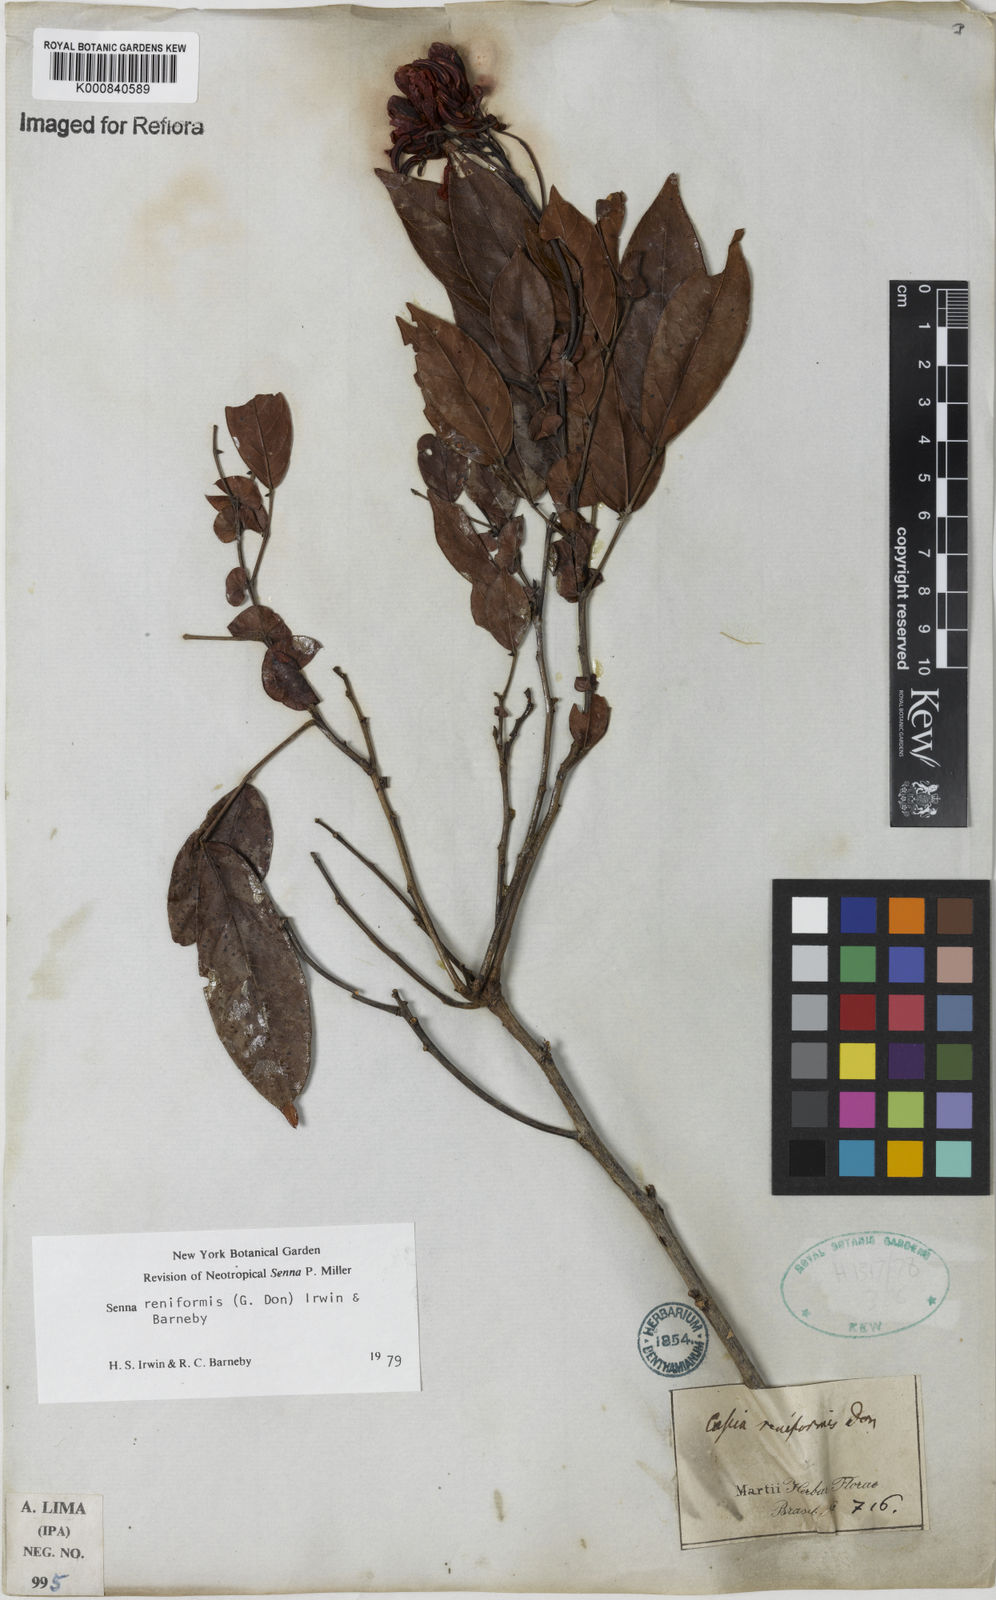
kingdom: Plantae
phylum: Tracheophyta
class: Magnoliopsida
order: Fabales
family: Fabaceae
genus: Senna
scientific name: Senna reniformis
